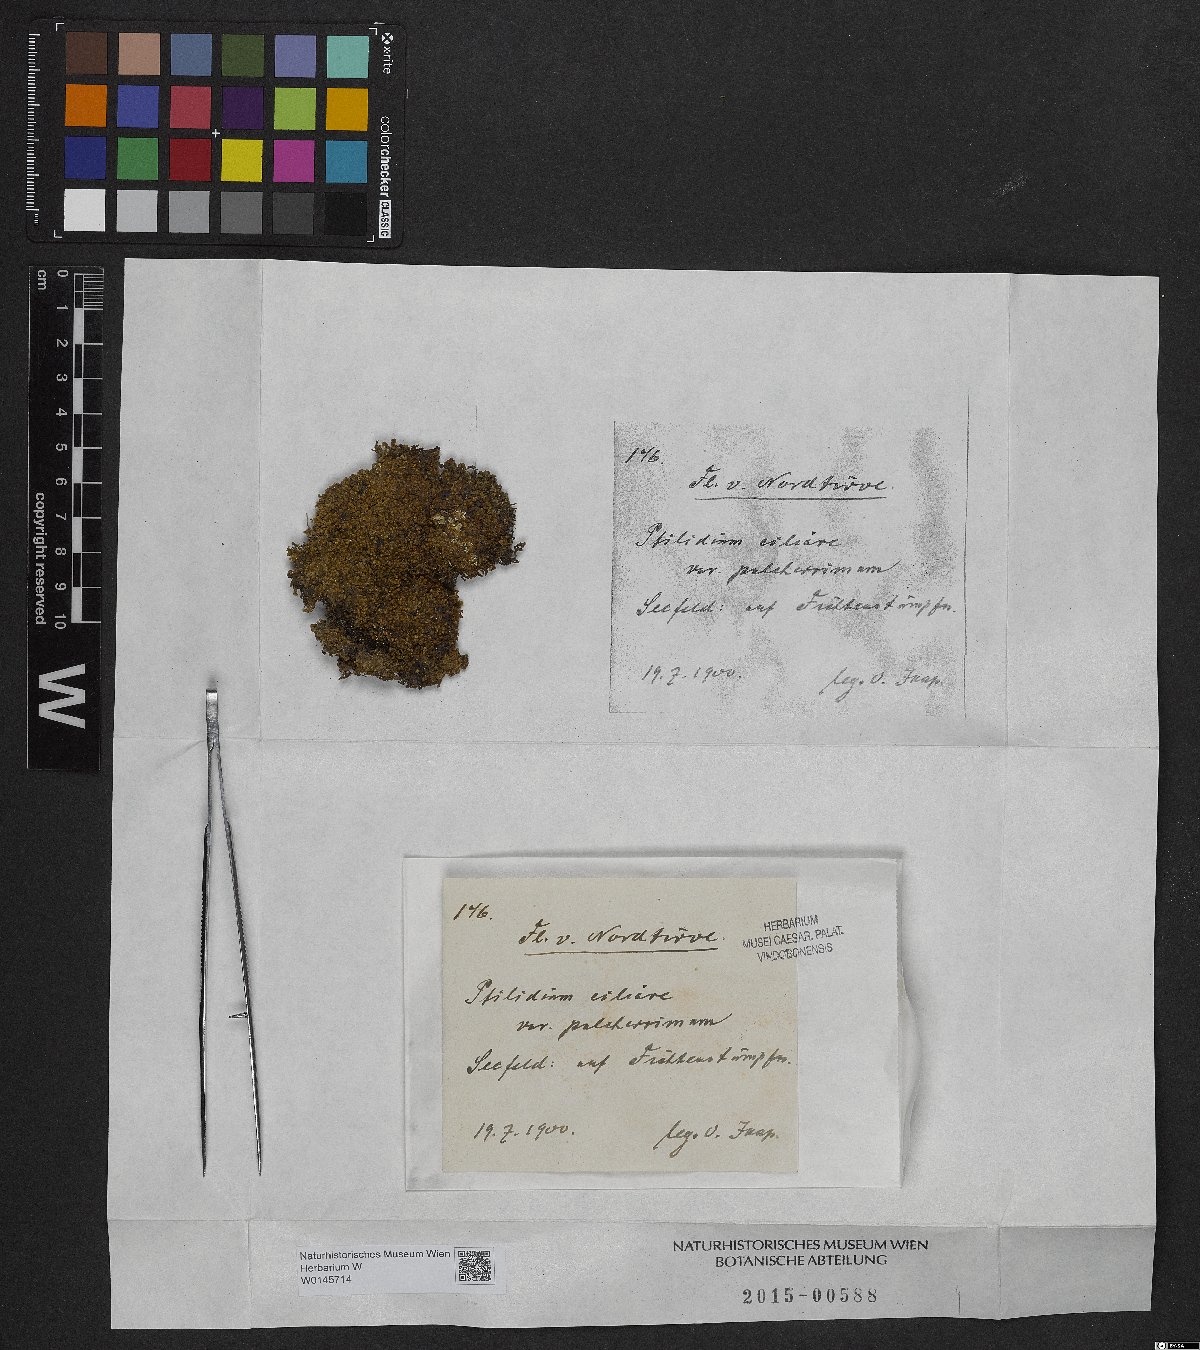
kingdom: Plantae
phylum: Marchantiophyta
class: Jungermanniopsida
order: Ptilidiales
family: Ptilidiaceae
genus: Ptilidium
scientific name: Ptilidium pulcherrimum
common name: Tree fringewort
